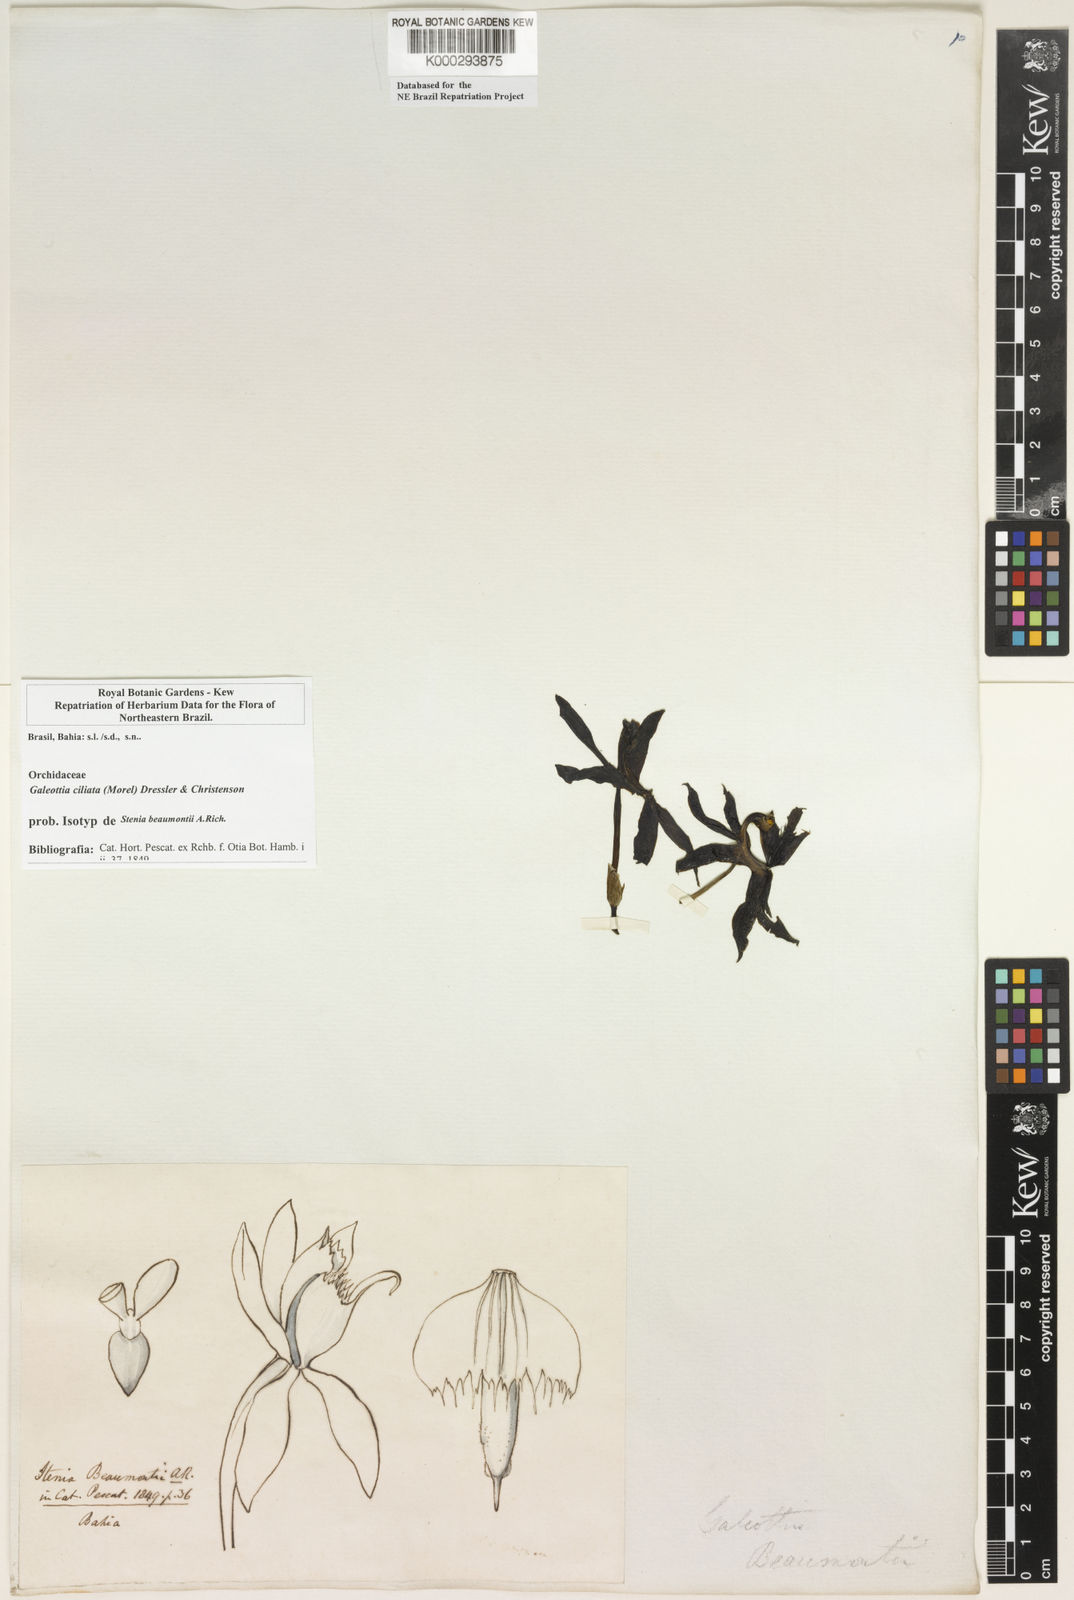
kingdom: Plantae
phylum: Tracheophyta
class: Liliopsida
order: Asparagales
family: Orchidaceae
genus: Galeottia
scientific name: Galeottia ciliata
